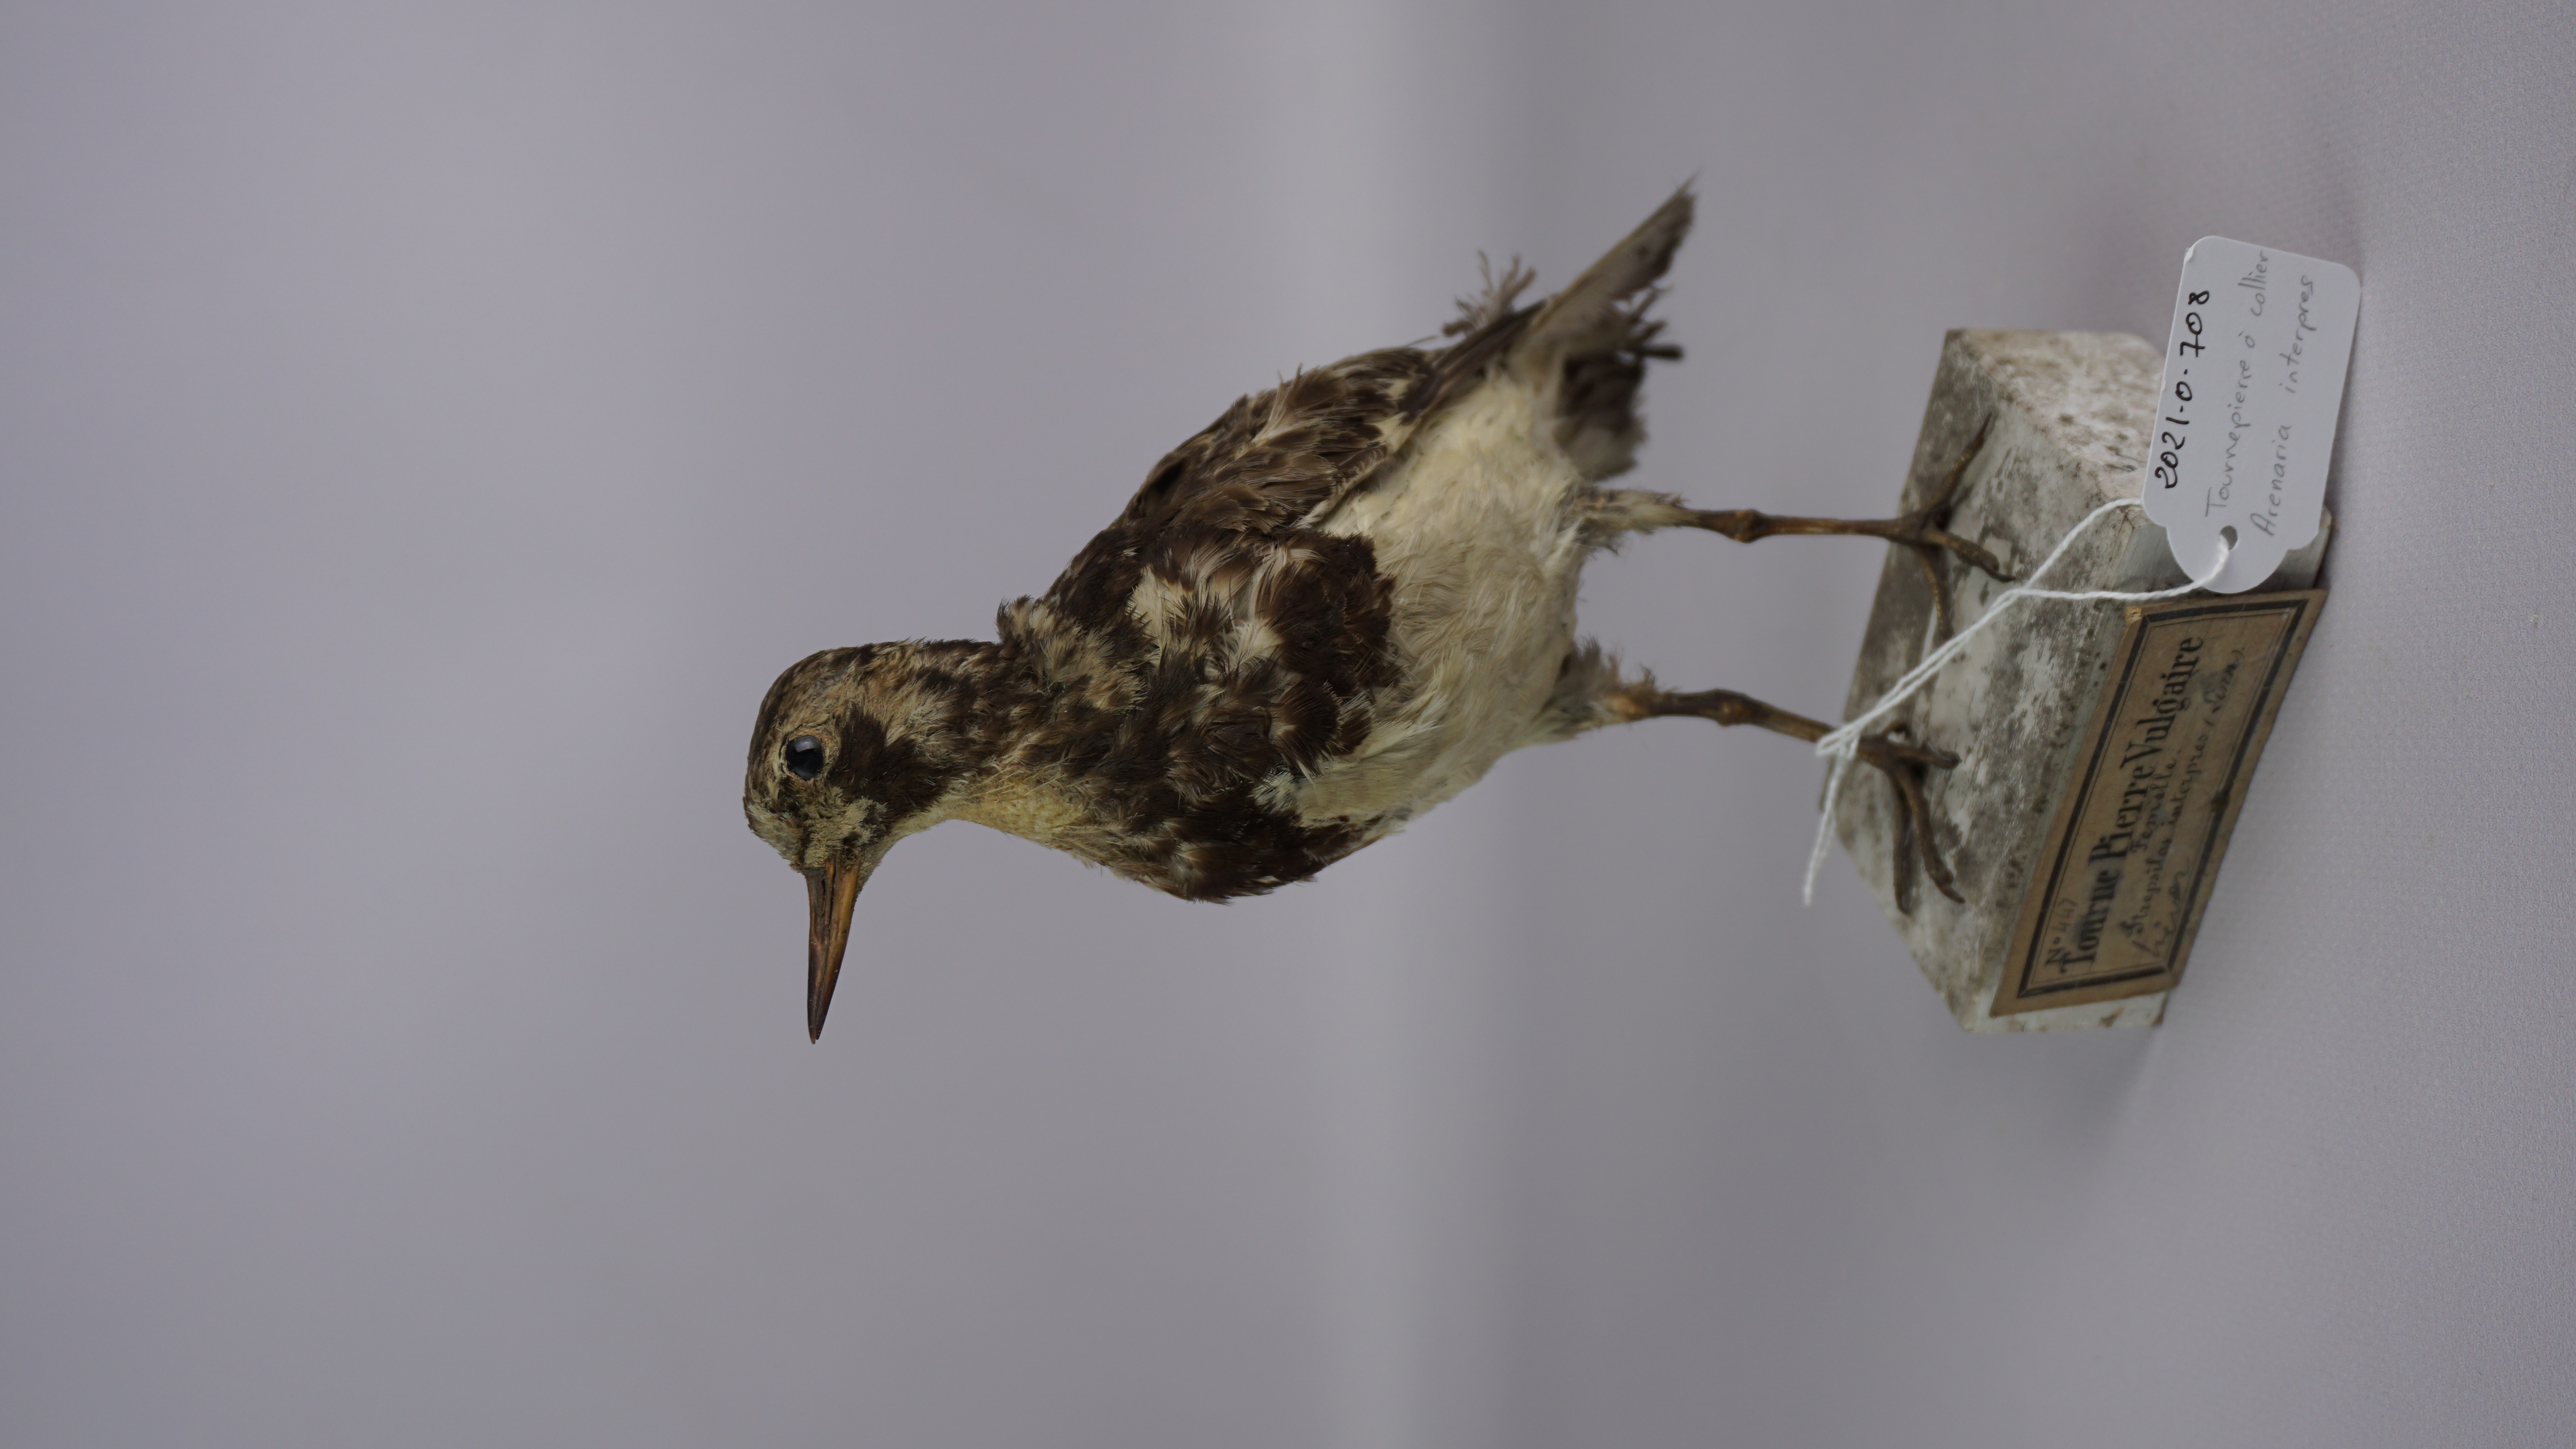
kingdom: Animalia
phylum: Chordata
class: Aves
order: Charadriiformes
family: Scolopacidae
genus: Arenaria
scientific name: Arenaria interpres
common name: Ruddy turnstone
